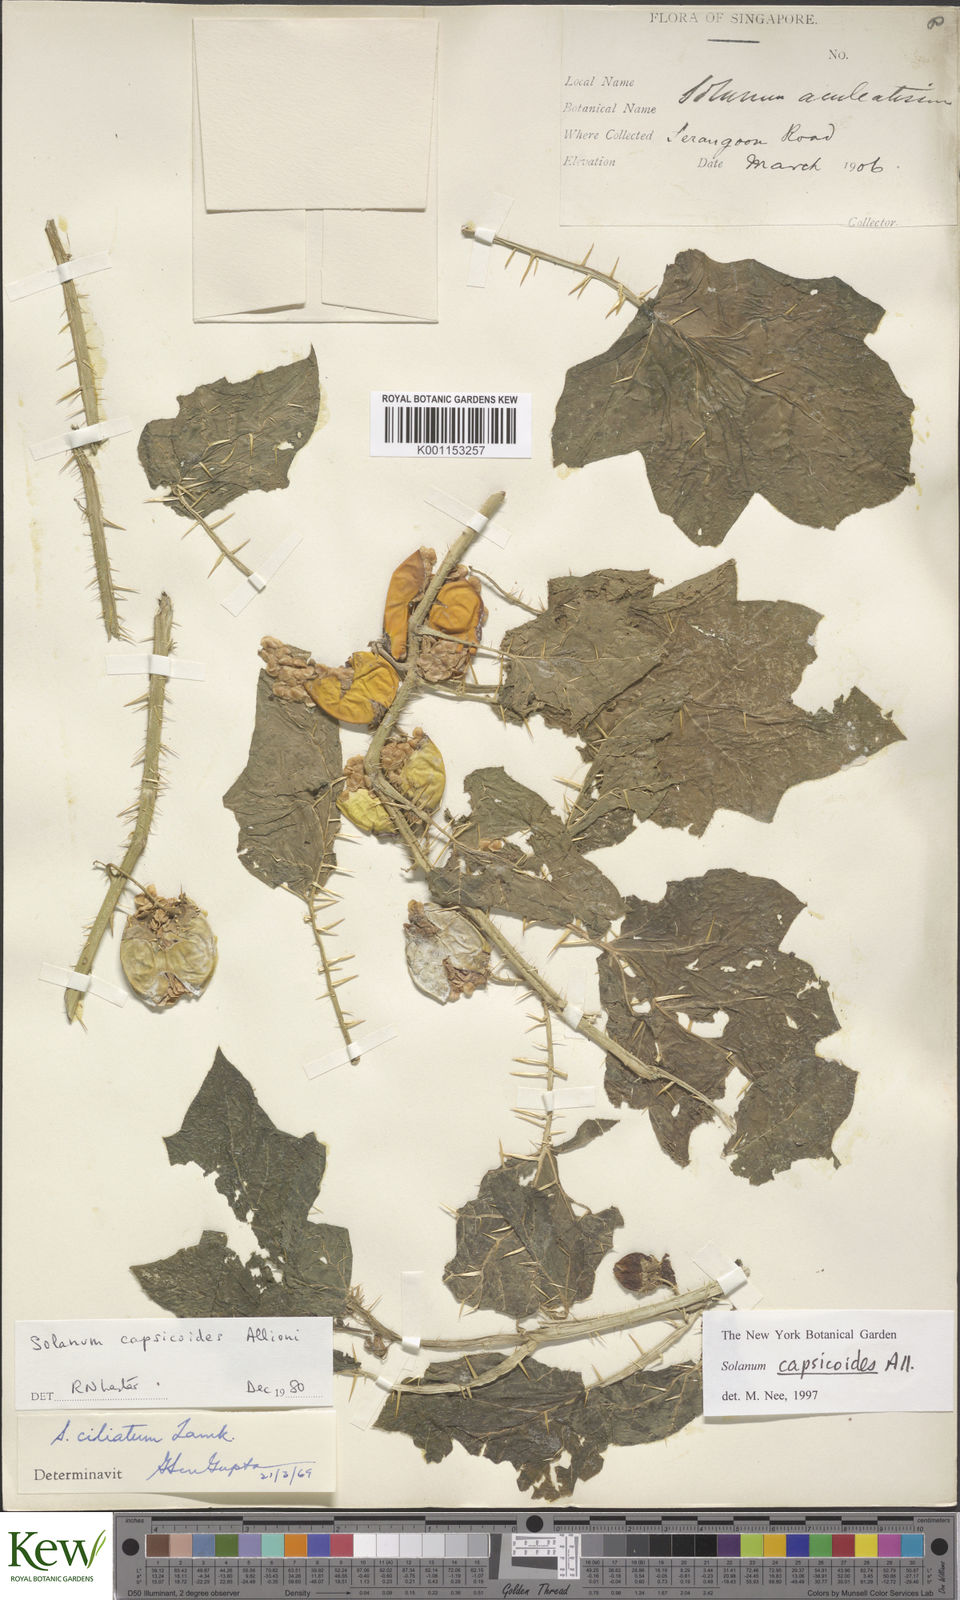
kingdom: Plantae
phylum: Tracheophyta
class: Magnoliopsida
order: Solanales
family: Solanaceae
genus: Solanum
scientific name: Solanum capsicoides
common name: Cockroach berry
